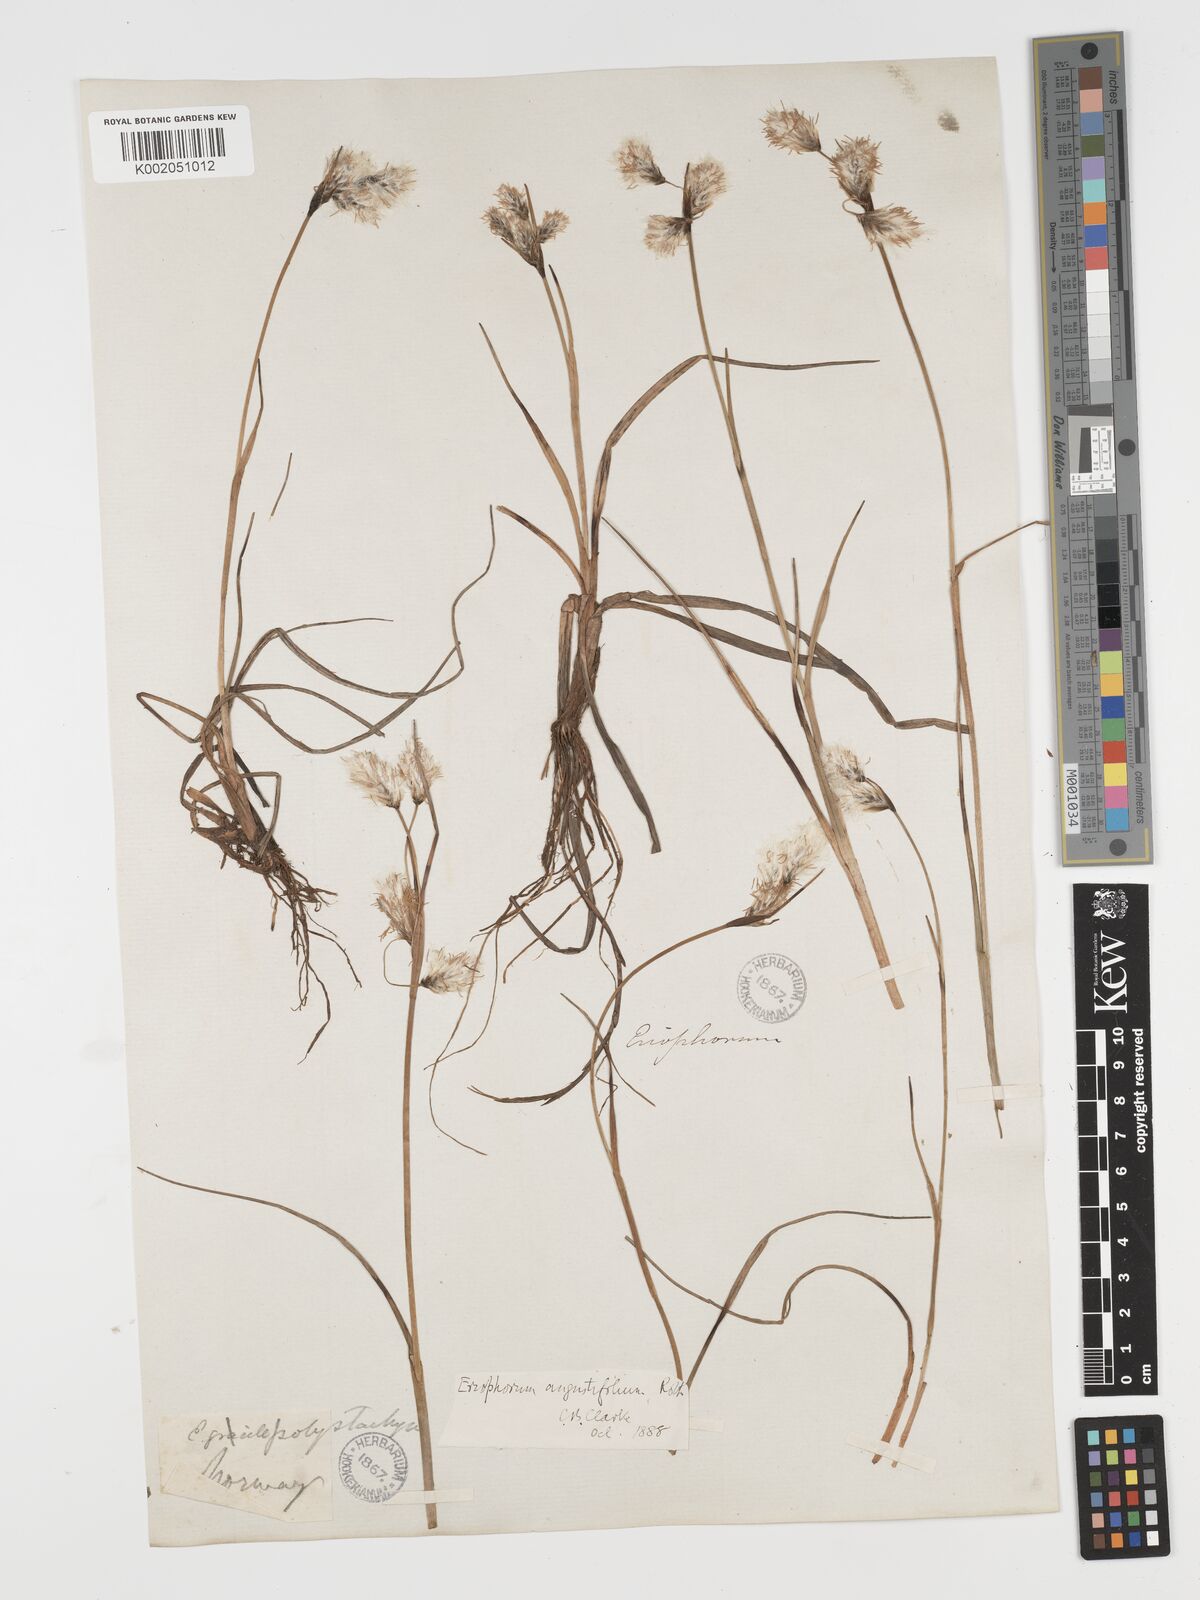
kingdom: Plantae
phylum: Tracheophyta
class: Liliopsida
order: Poales
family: Cyperaceae
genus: Eriophorum
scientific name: Eriophorum angustifolium
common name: Common cottongrass
